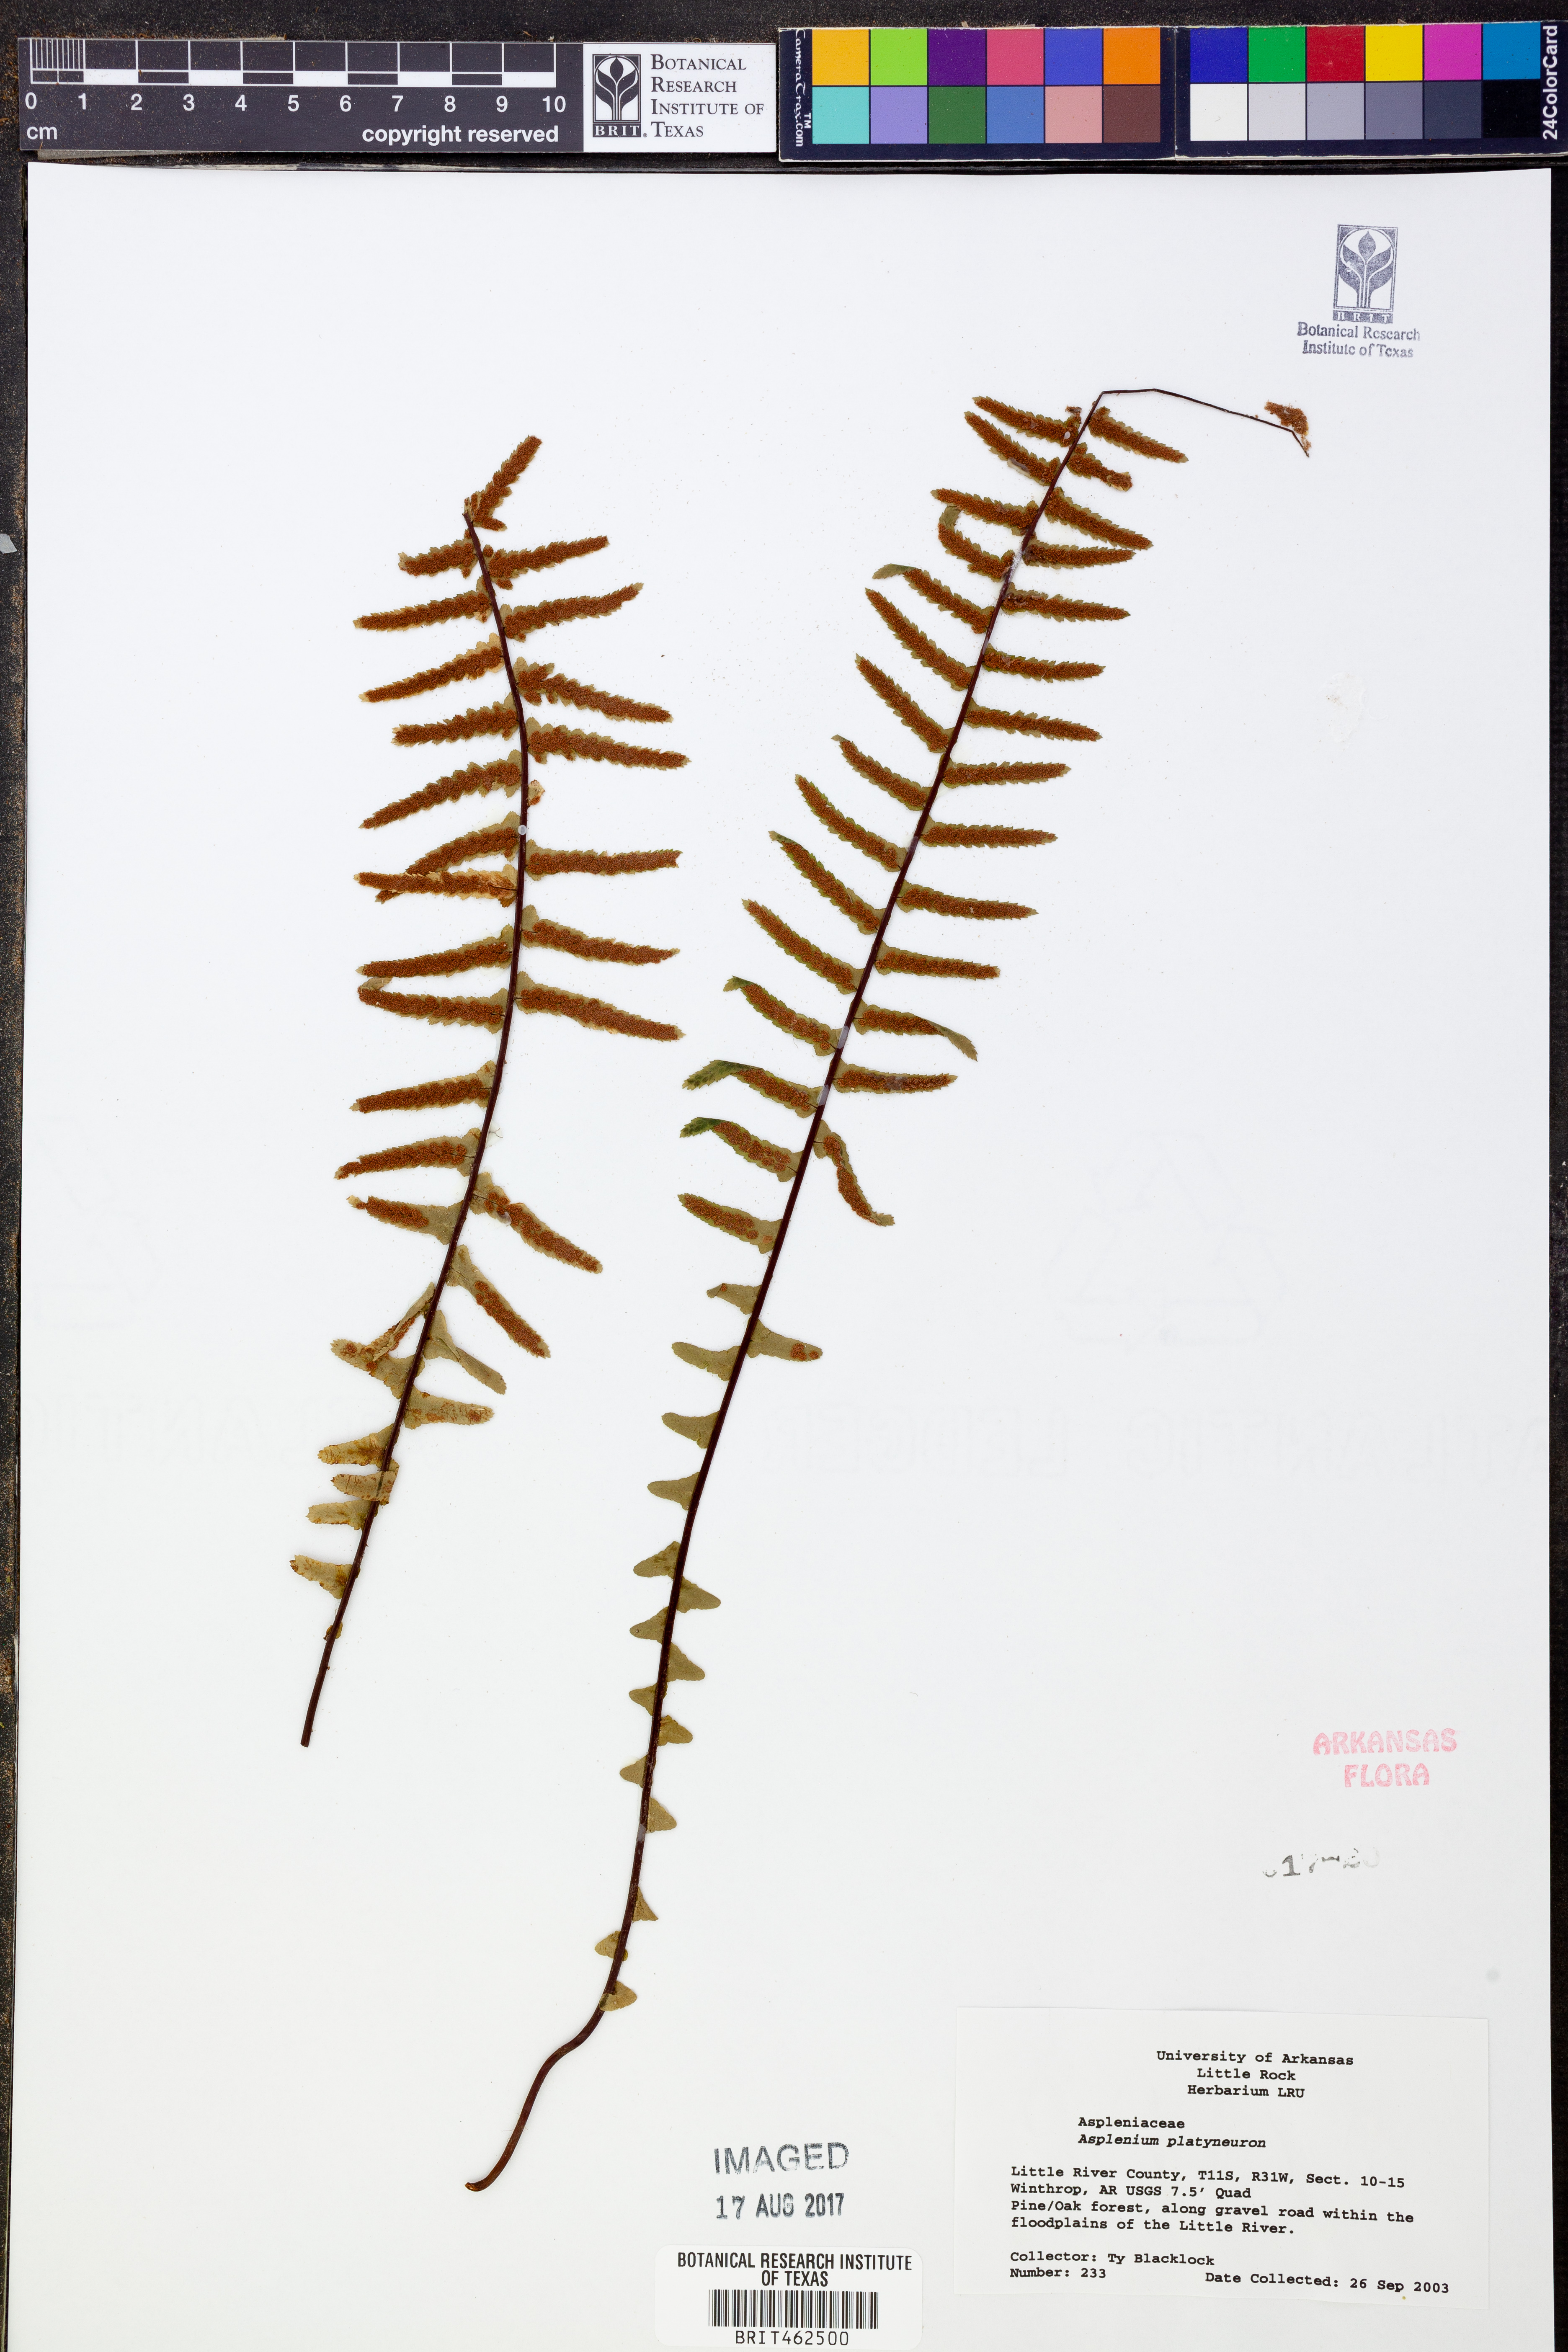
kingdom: Plantae
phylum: Tracheophyta
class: Polypodiopsida
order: Polypodiales
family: Aspleniaceae
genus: Asplenium
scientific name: Asplenium platyneuron
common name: Ebony spleenwort
